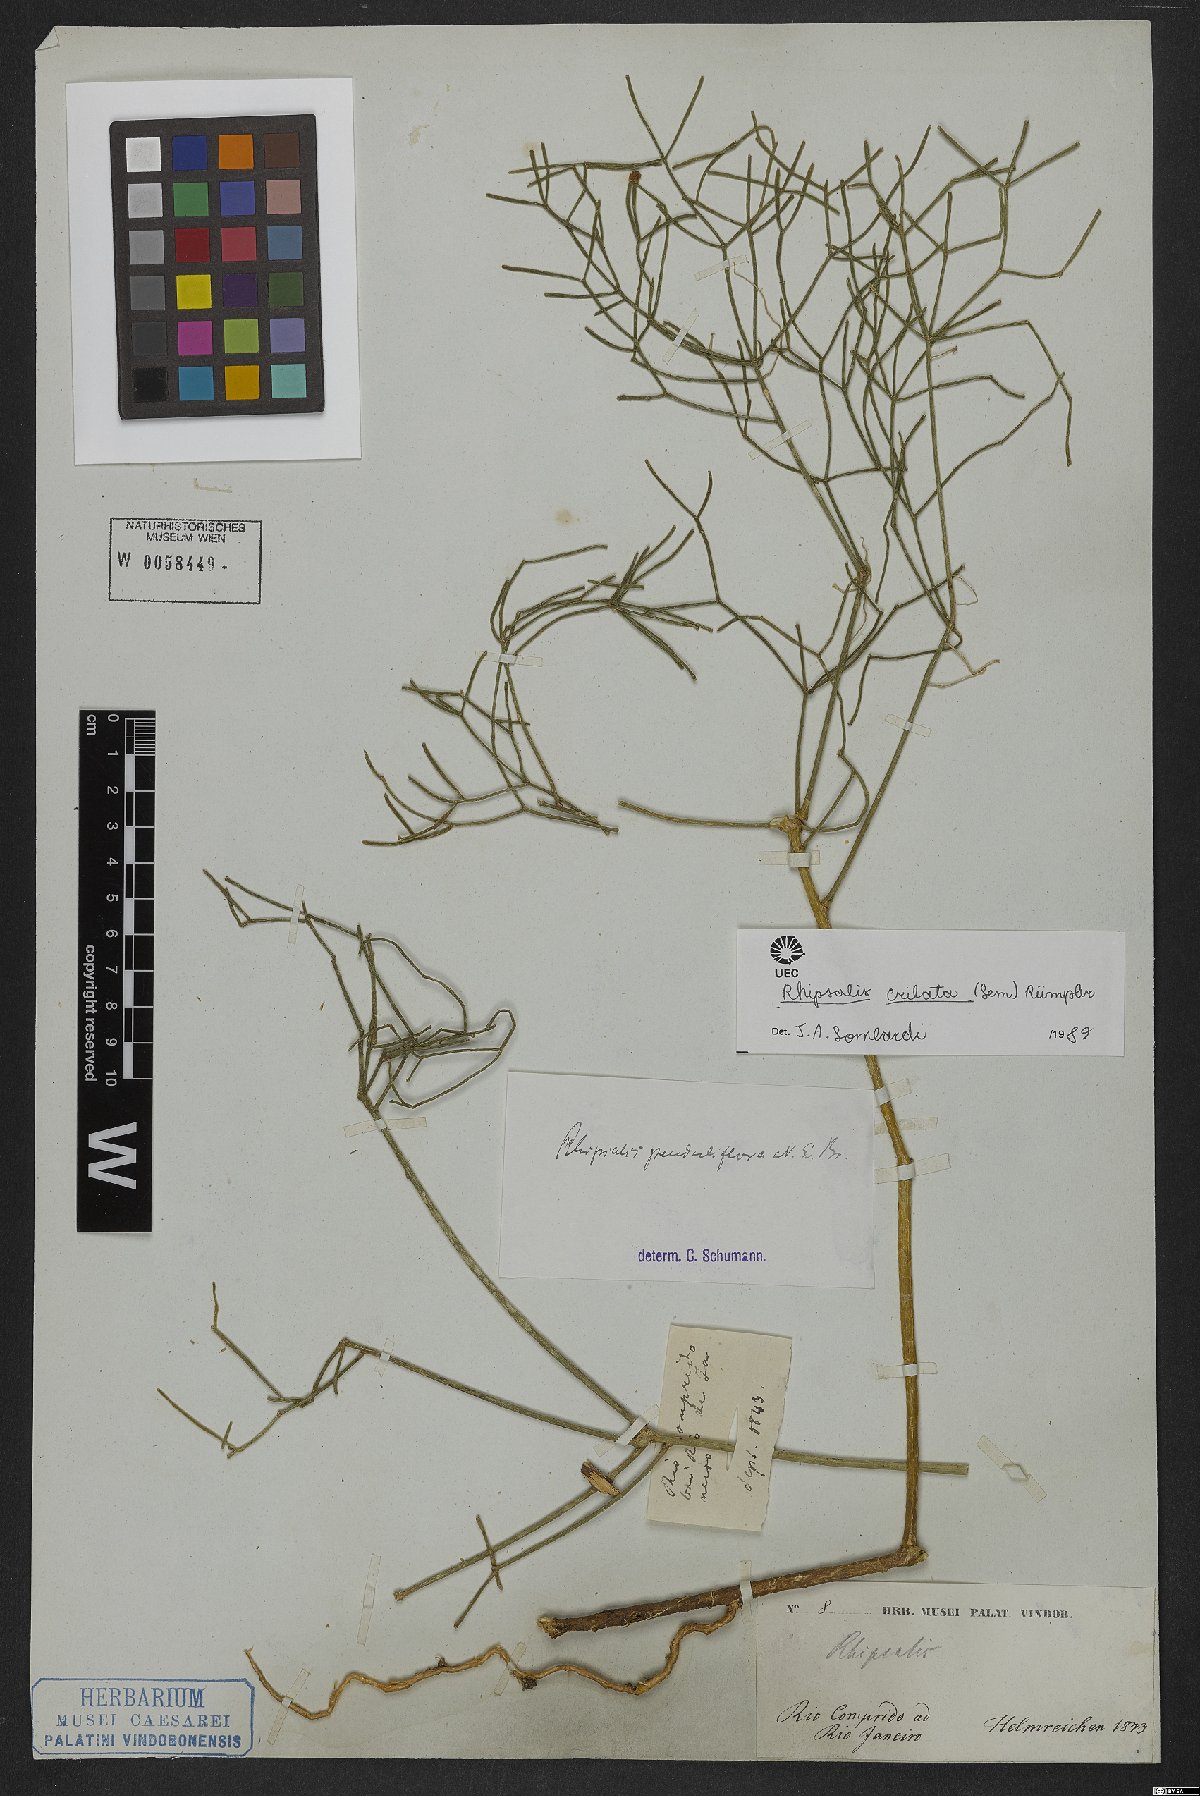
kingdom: Plantae
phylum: Tracheophyta
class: Magnoliopsida
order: Caryophyllales
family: Cactaceae
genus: Rhipsalis
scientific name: Rhipsalis teres
